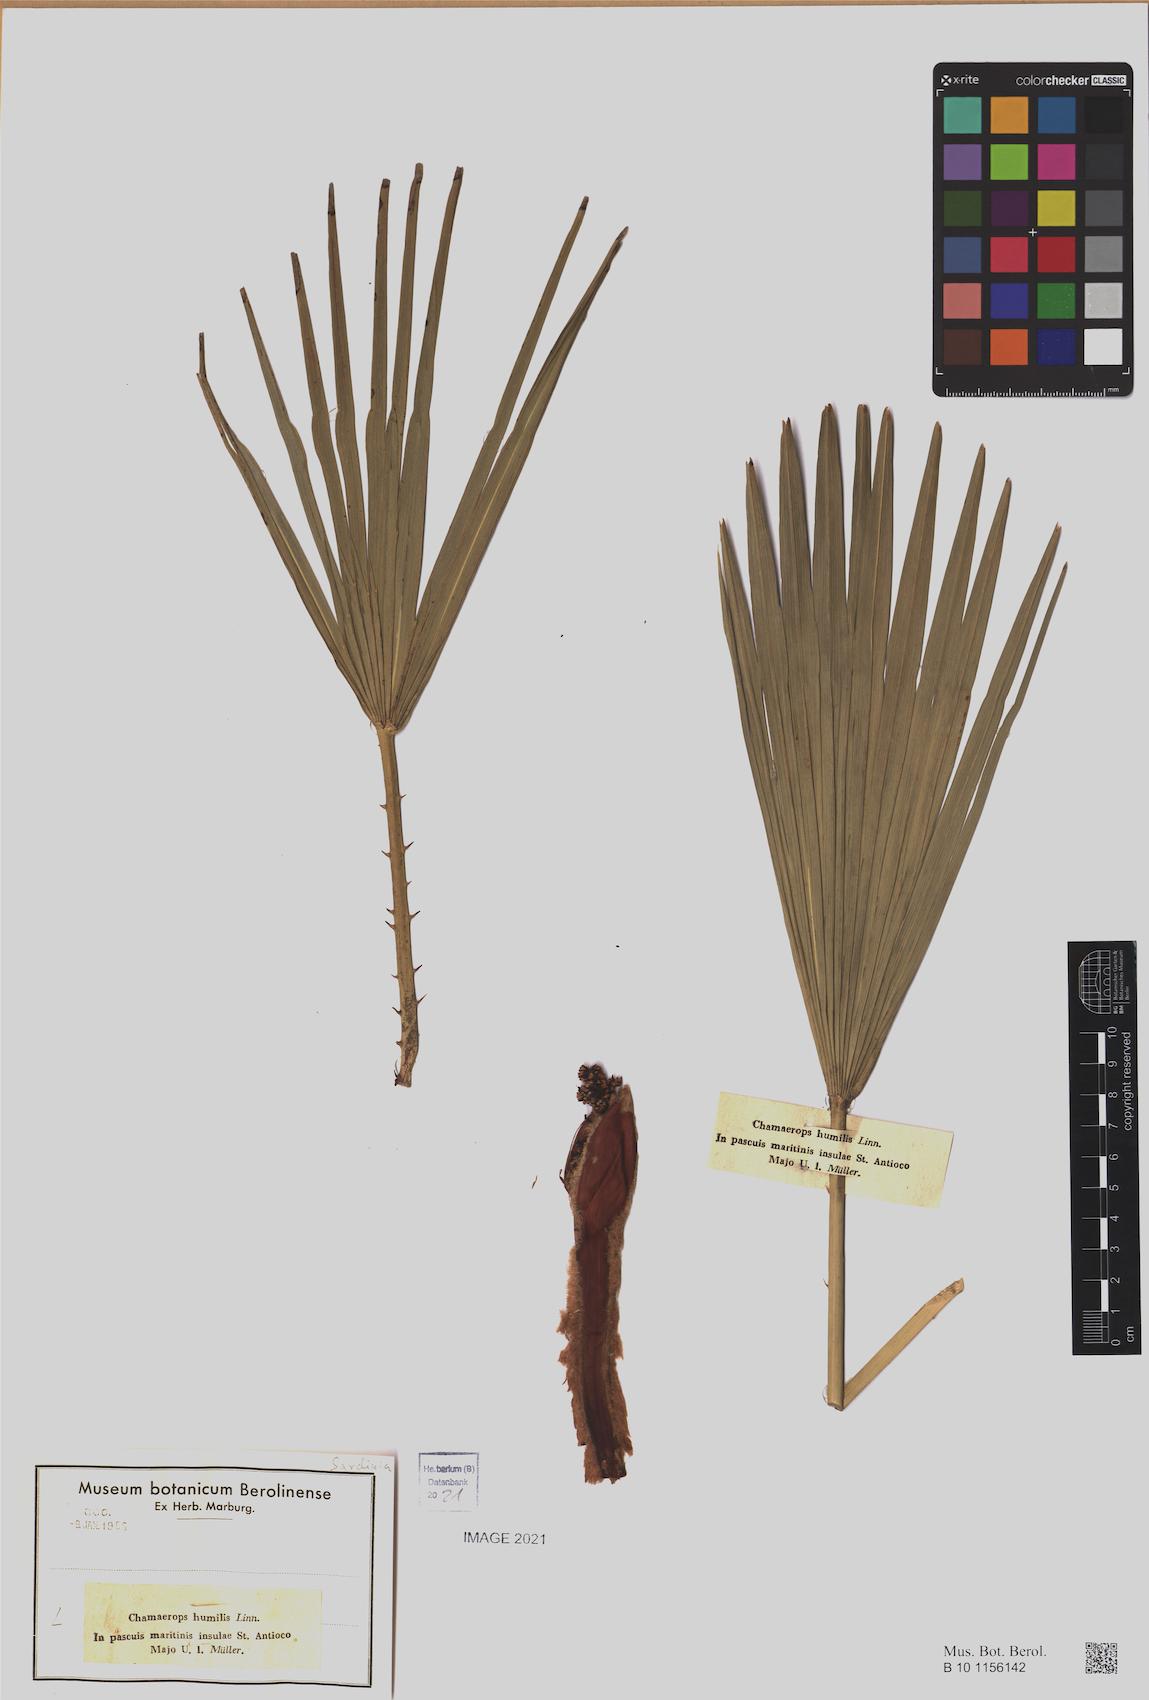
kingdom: Plantae
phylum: Tracheophyta
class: Liliopsida
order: Arecales
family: Arecaceae
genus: Chamaerops
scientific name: Chamaerops humilis
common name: Dwarf fan palm
